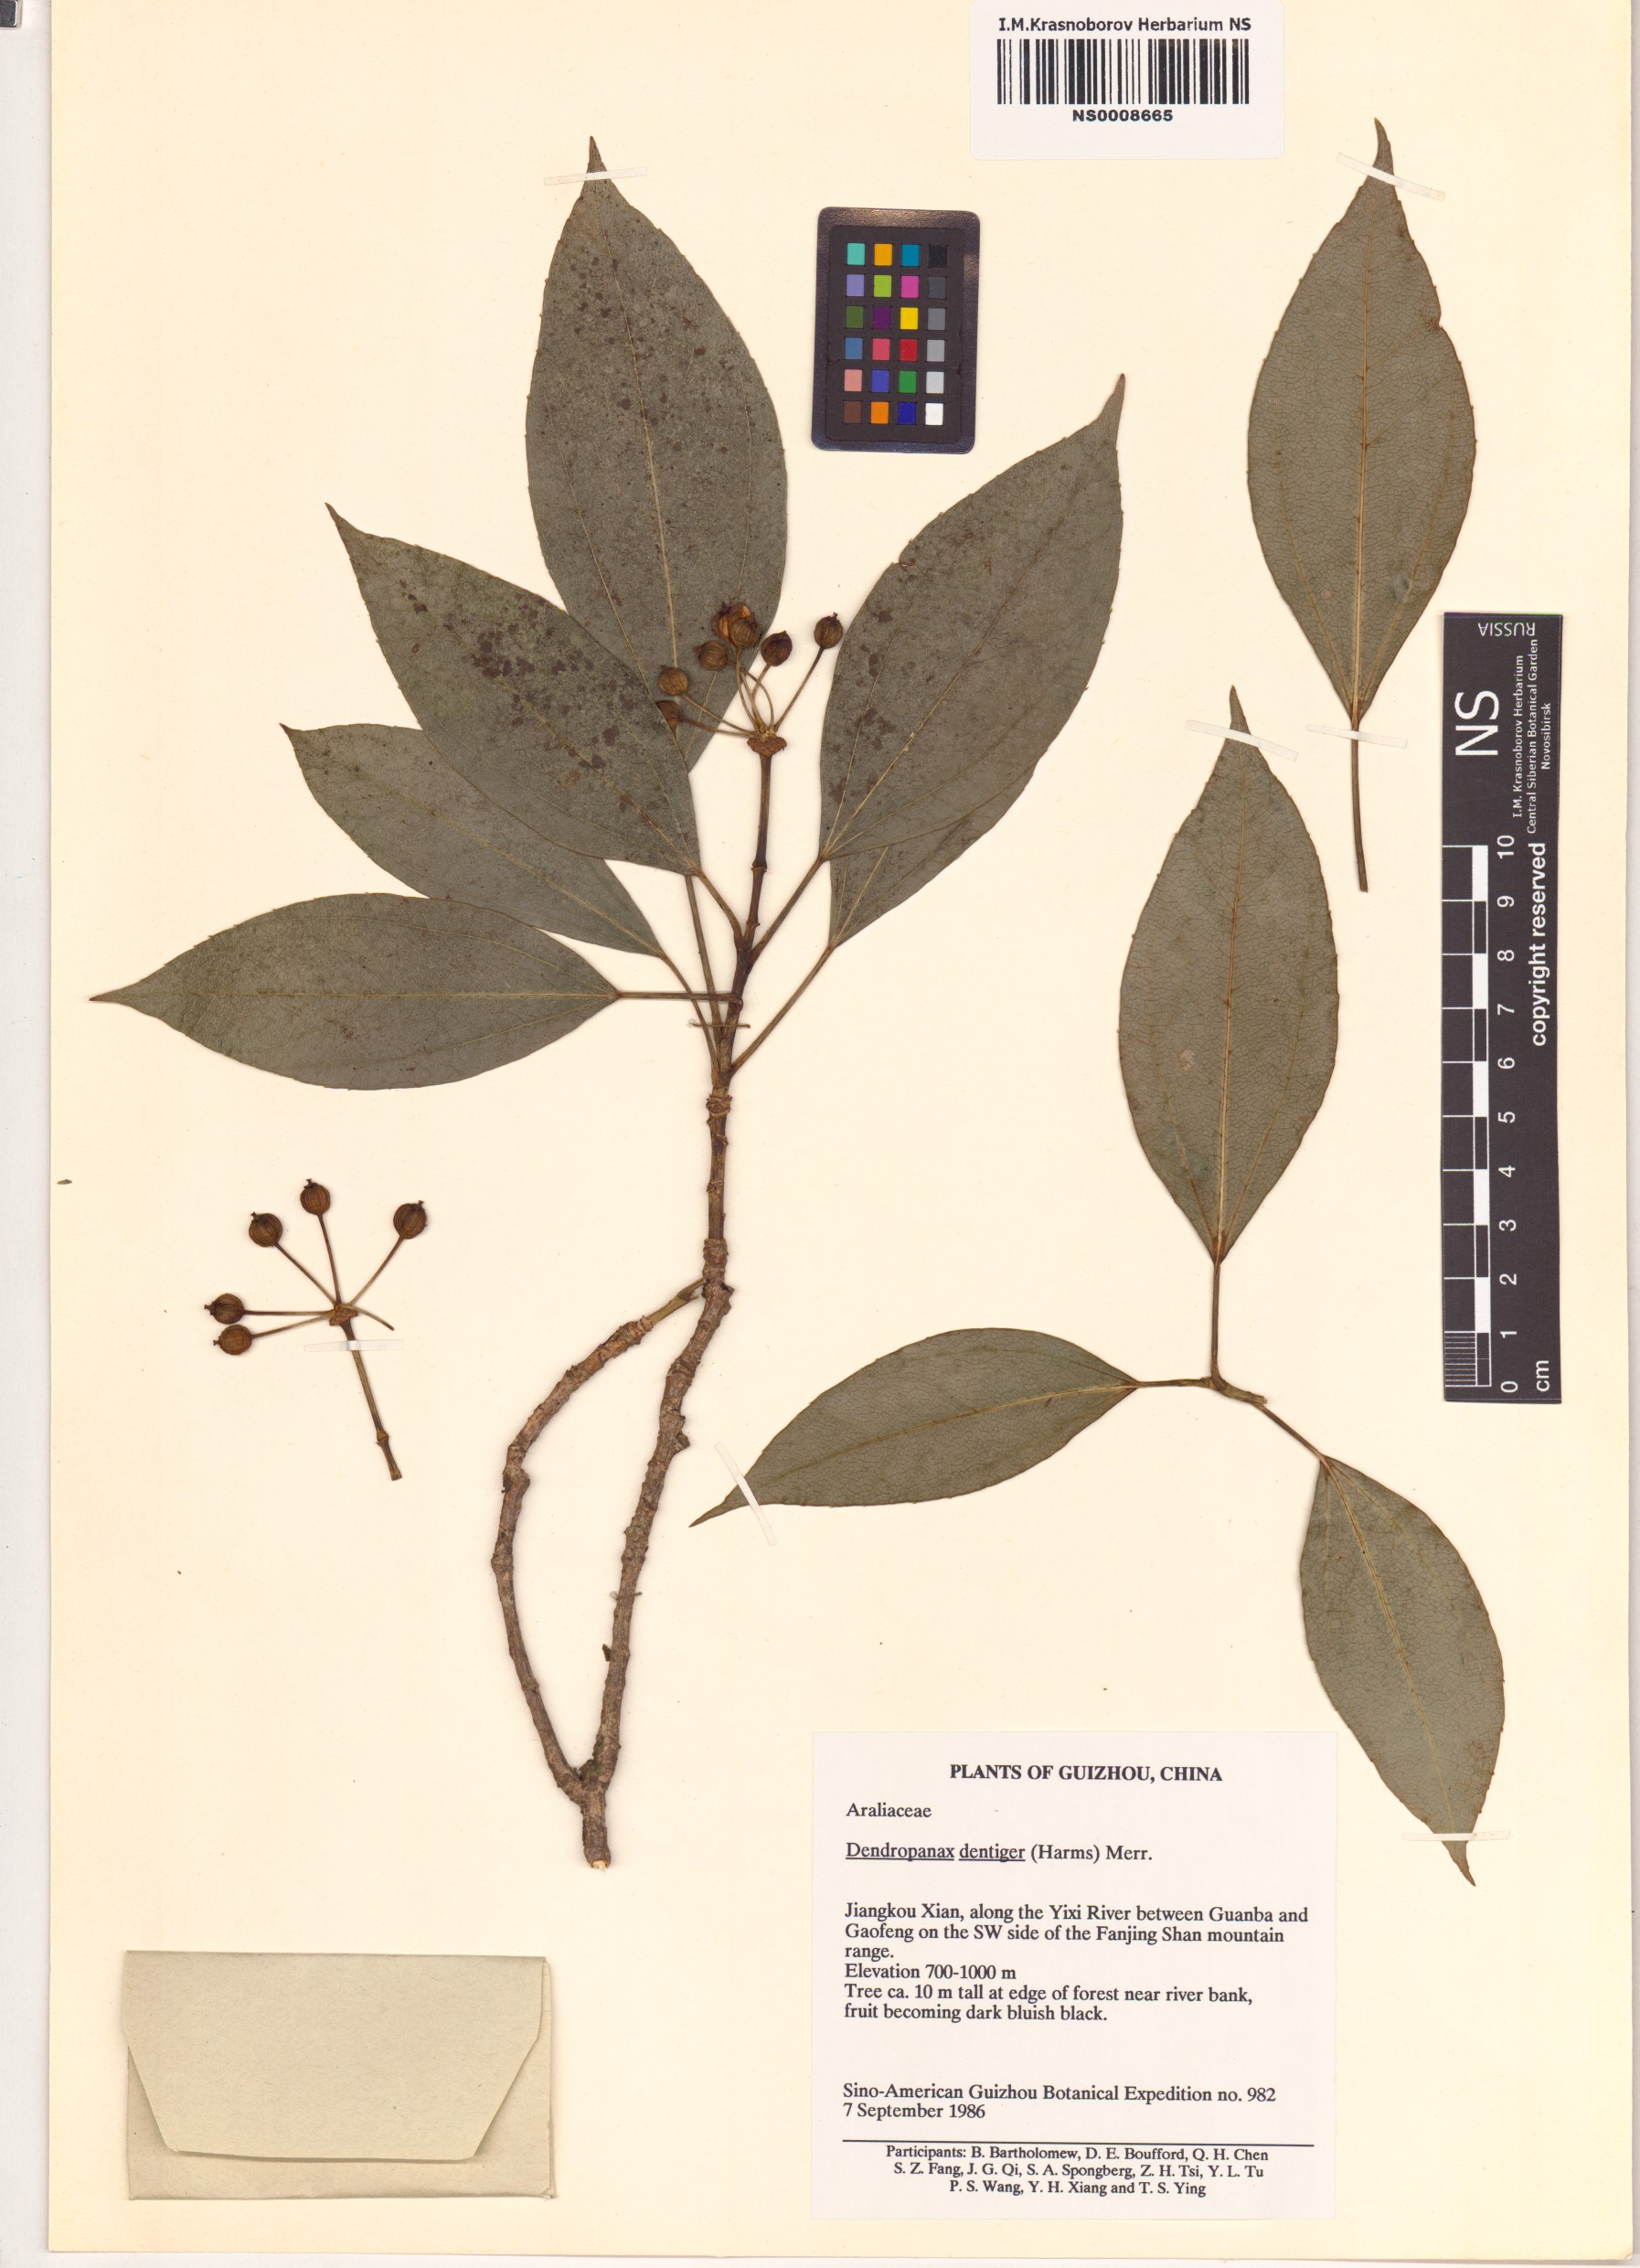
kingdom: Plantae
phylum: Tracheophyta
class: Magnoliopsida
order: Apiales
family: Araliaceae
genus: Dendropanax
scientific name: Dendropanax dentiger
